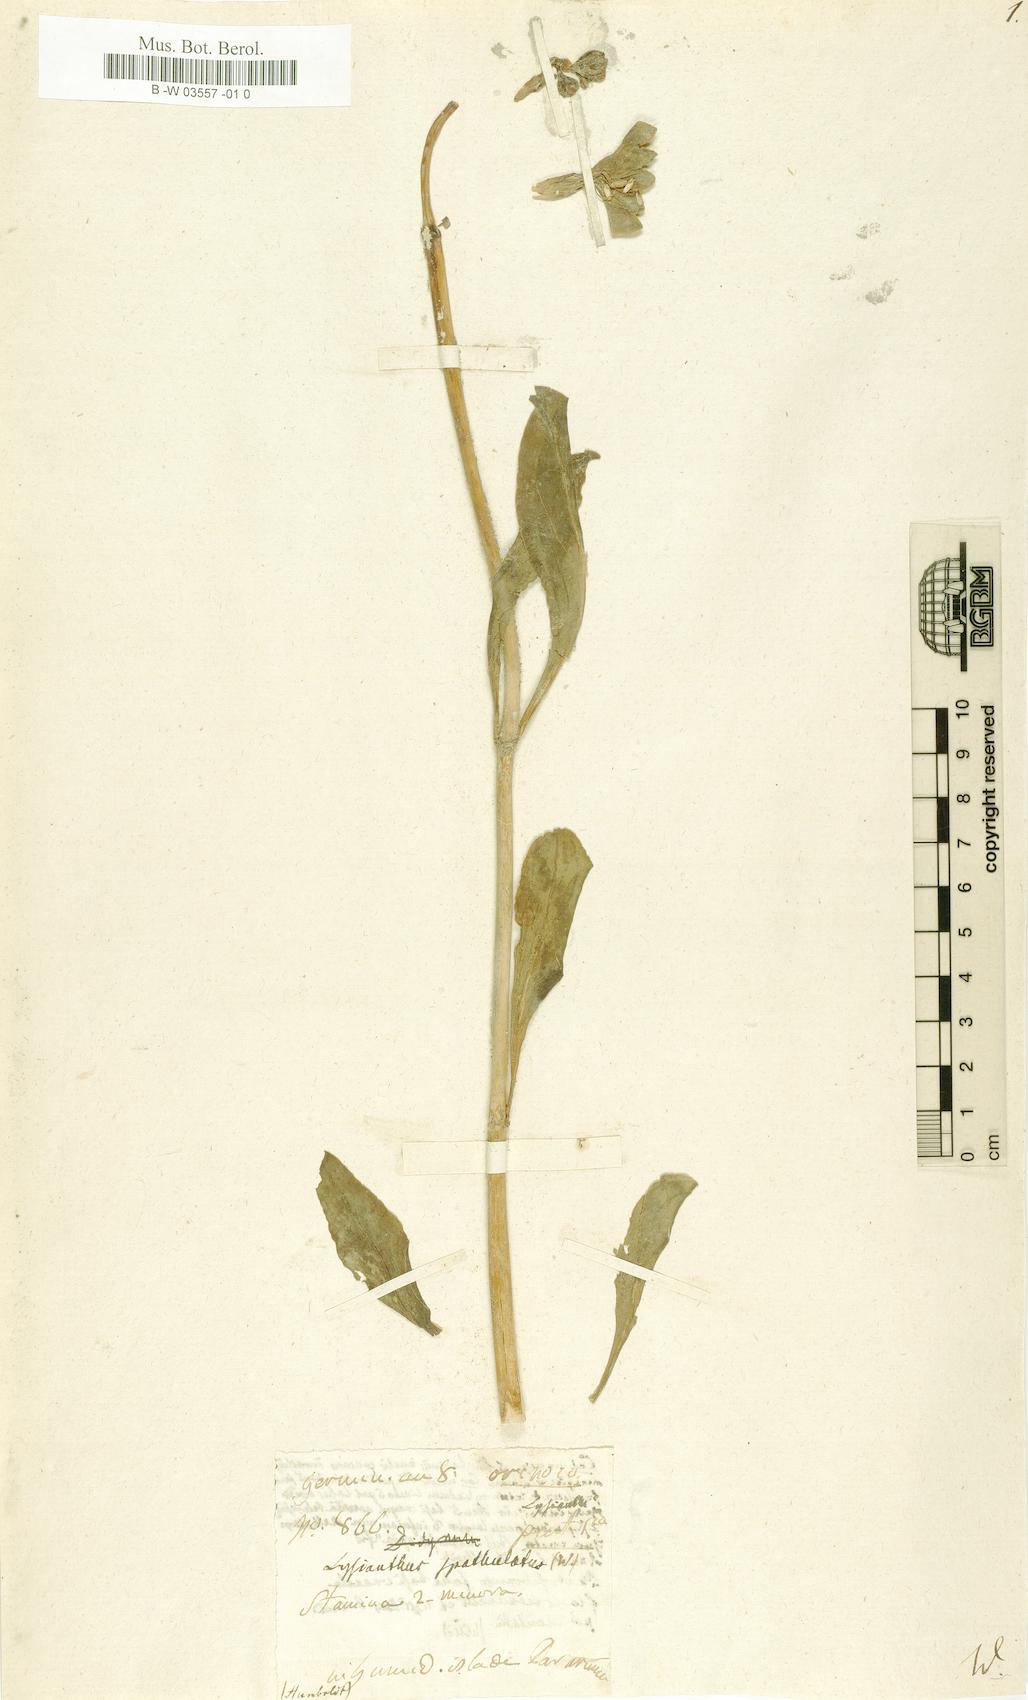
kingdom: Plantae
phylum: Tracheophyta
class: Magnoliopsida
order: Gentianales
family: Gentianaceae
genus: Lisianthius
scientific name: Lisianthius spathulatus
